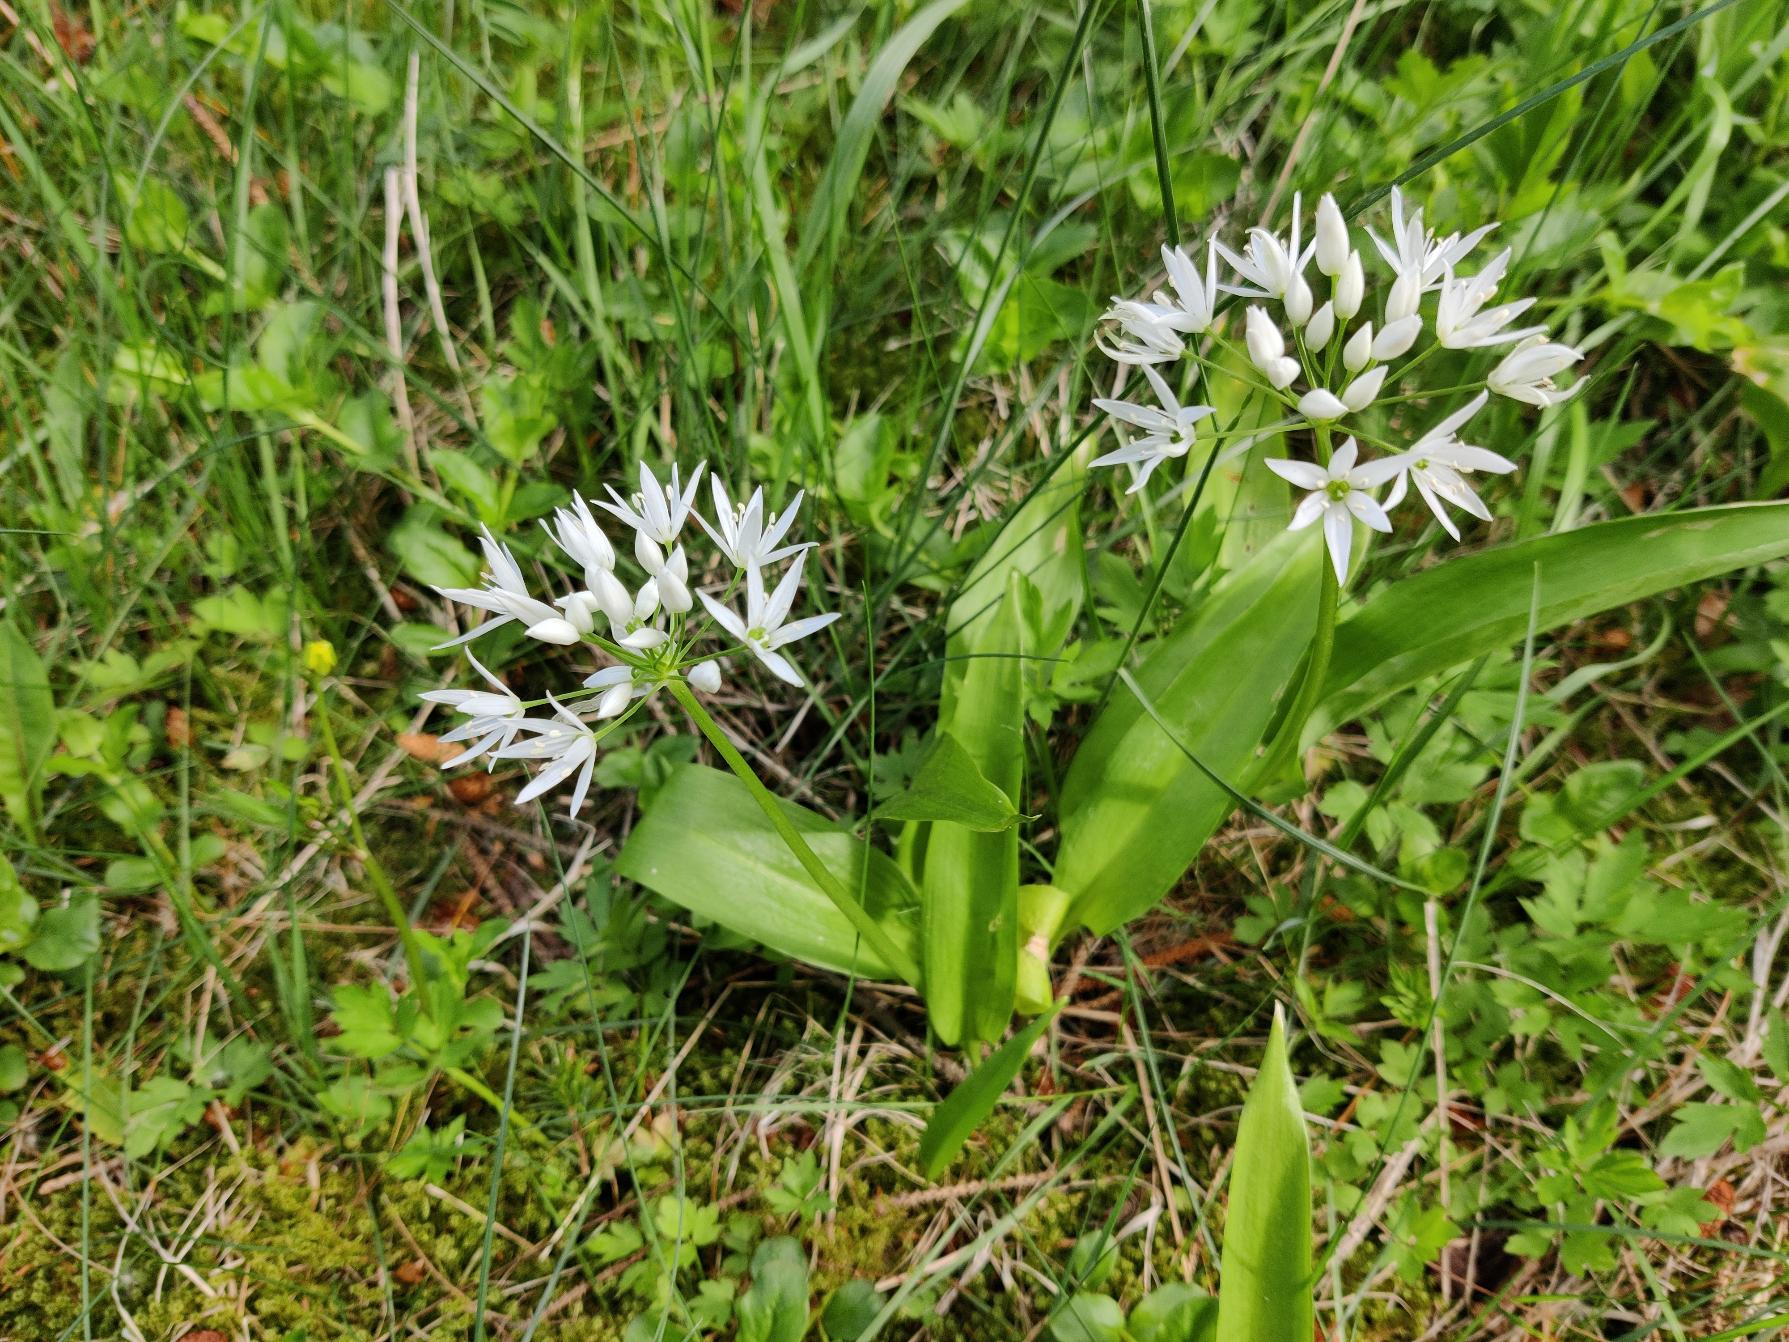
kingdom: Plantae
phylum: Tracheophyta
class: Liliopsida
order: Asparagales
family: Amaryllidaceae
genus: Allium
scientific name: Allium ursinum
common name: Rams-løg
